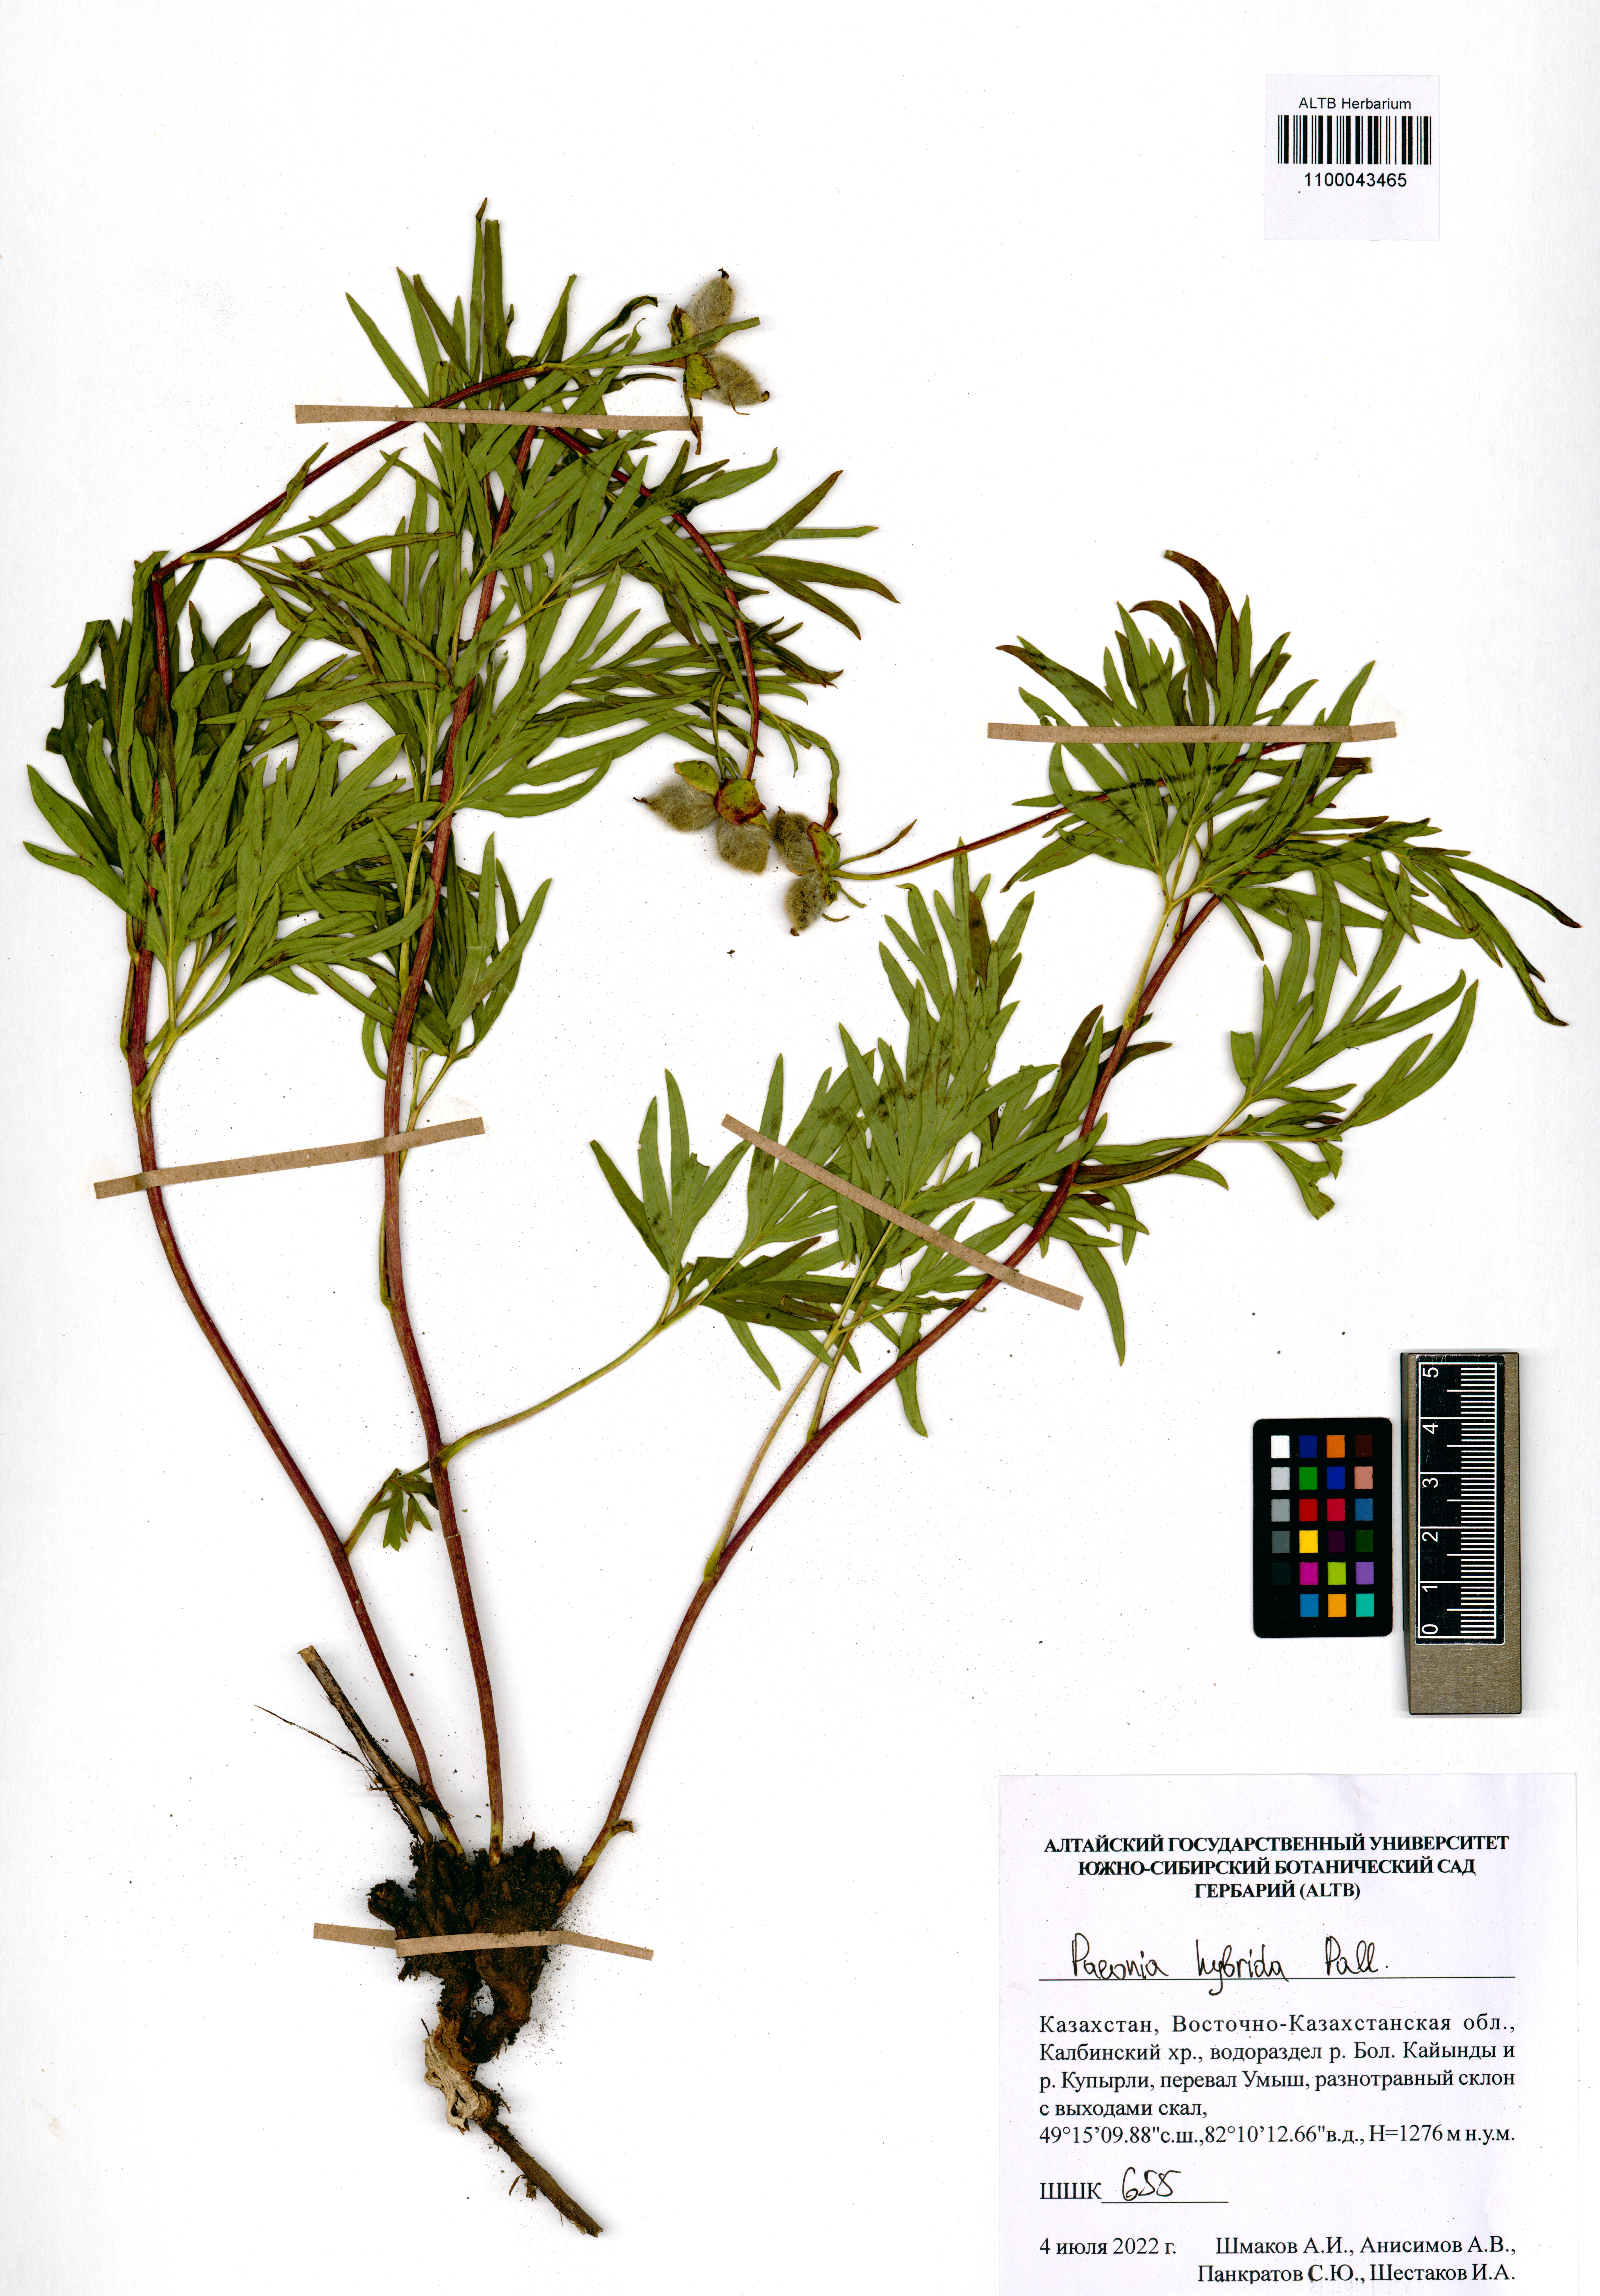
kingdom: Plantae
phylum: Tracheophyta
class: Magnoliopsida
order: Saxifragales
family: Paeoniaceae
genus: Paeonia
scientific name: Paeonia
